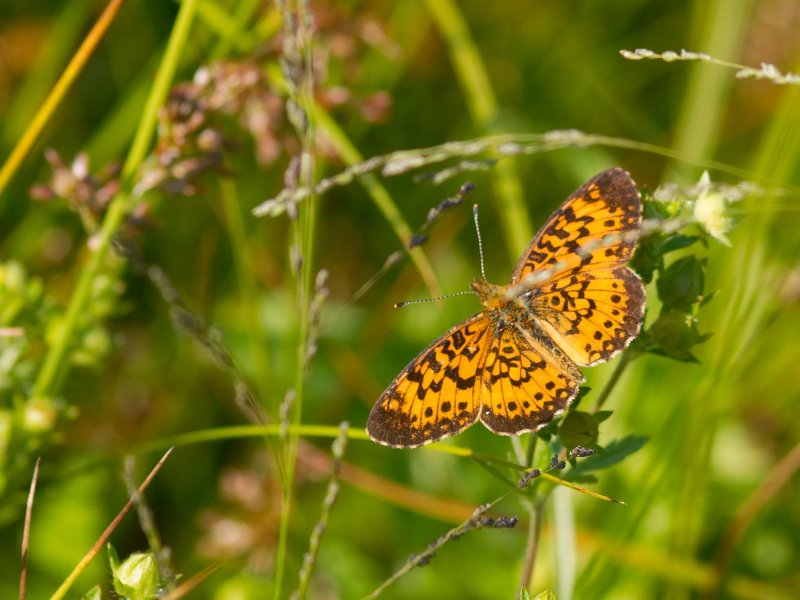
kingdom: Animalia
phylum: Arthropoda
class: Insecta
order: Lepidoptera
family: Nymphalidae
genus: Boloria
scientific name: Boloria selene
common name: Silver-bordered Fritillary
